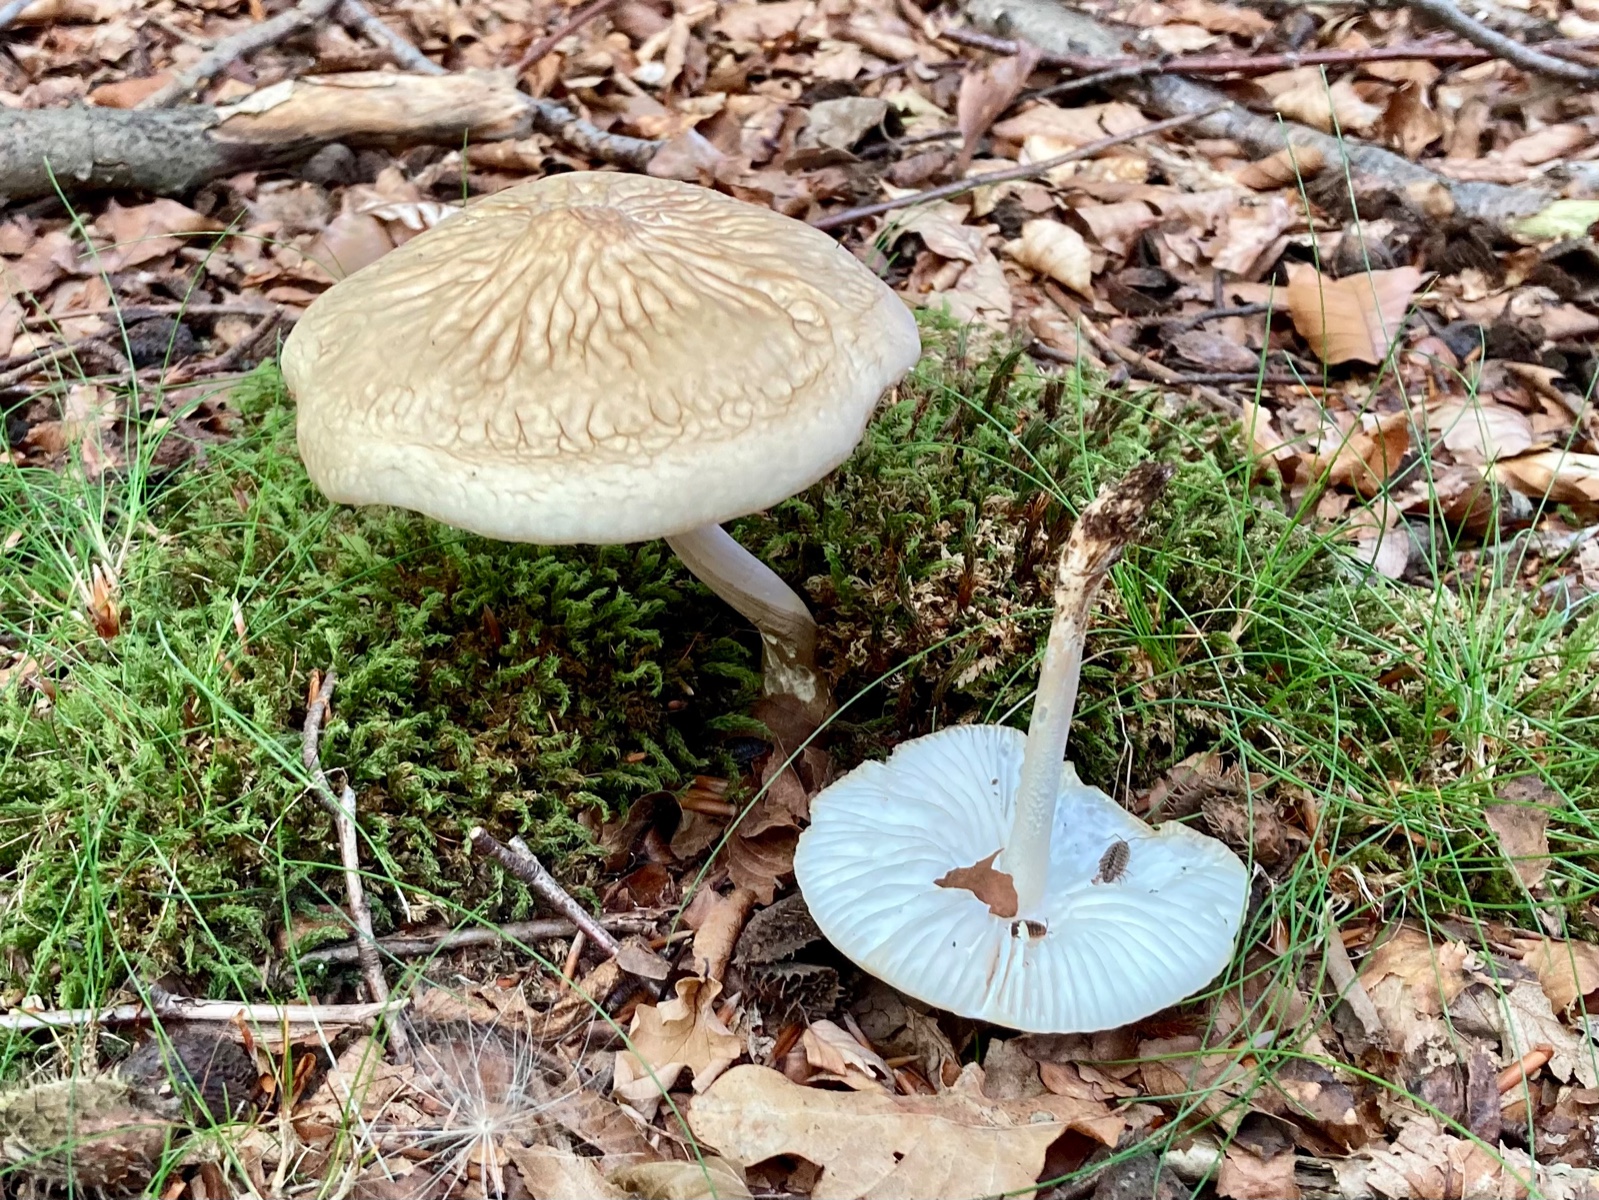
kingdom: Fungi
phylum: Basidiomycota
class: Agaricomycetes
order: Agaricales
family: Physalacriaceae
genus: Hymenopellis
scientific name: Hymenopellis radicata
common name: almindelig pælerodshat
